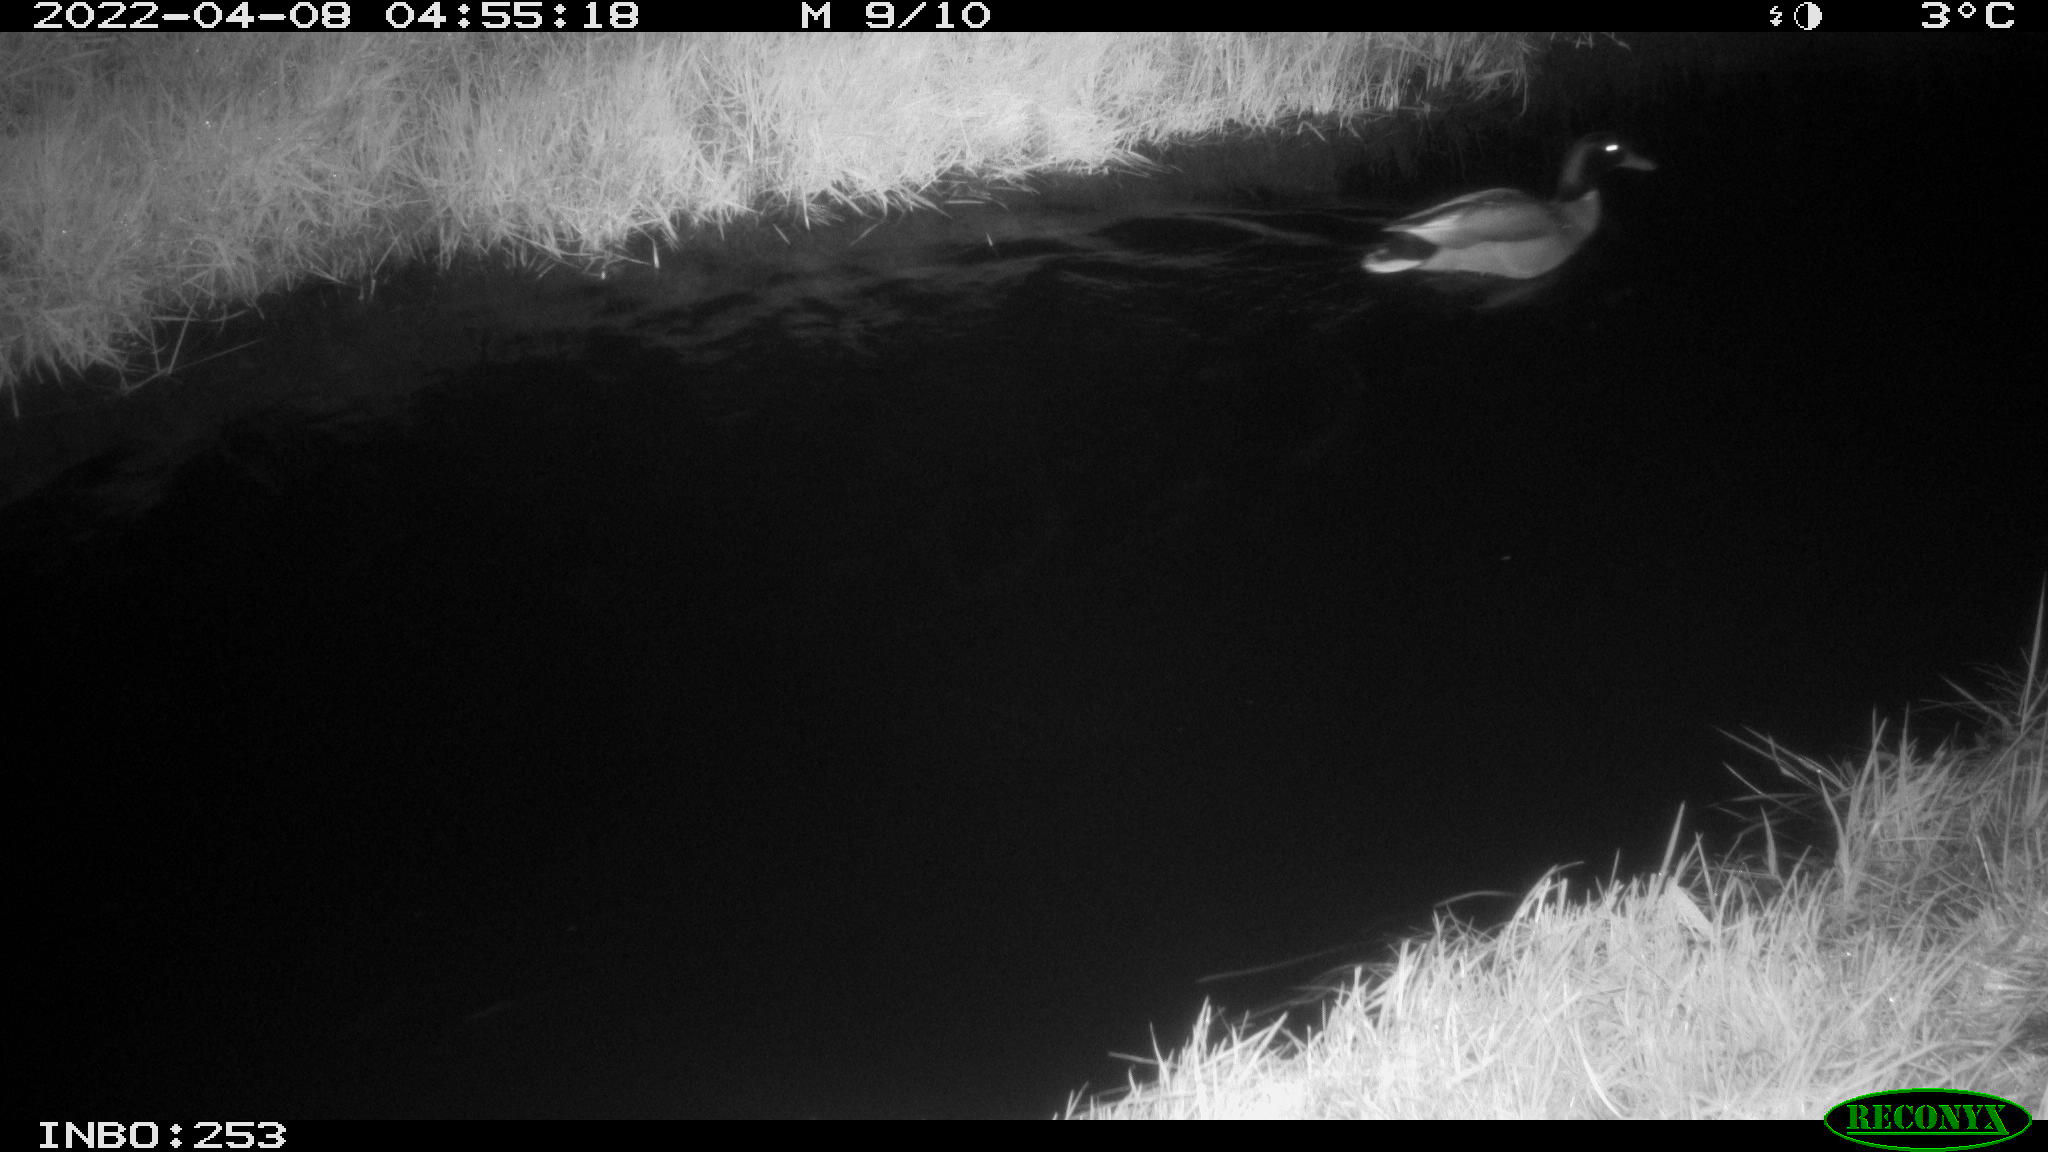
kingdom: Animalia
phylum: Chordata
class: Aves
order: Anseriformes
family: Anatidae
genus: Anas
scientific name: Anas platyrhynchos
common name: Mallard
